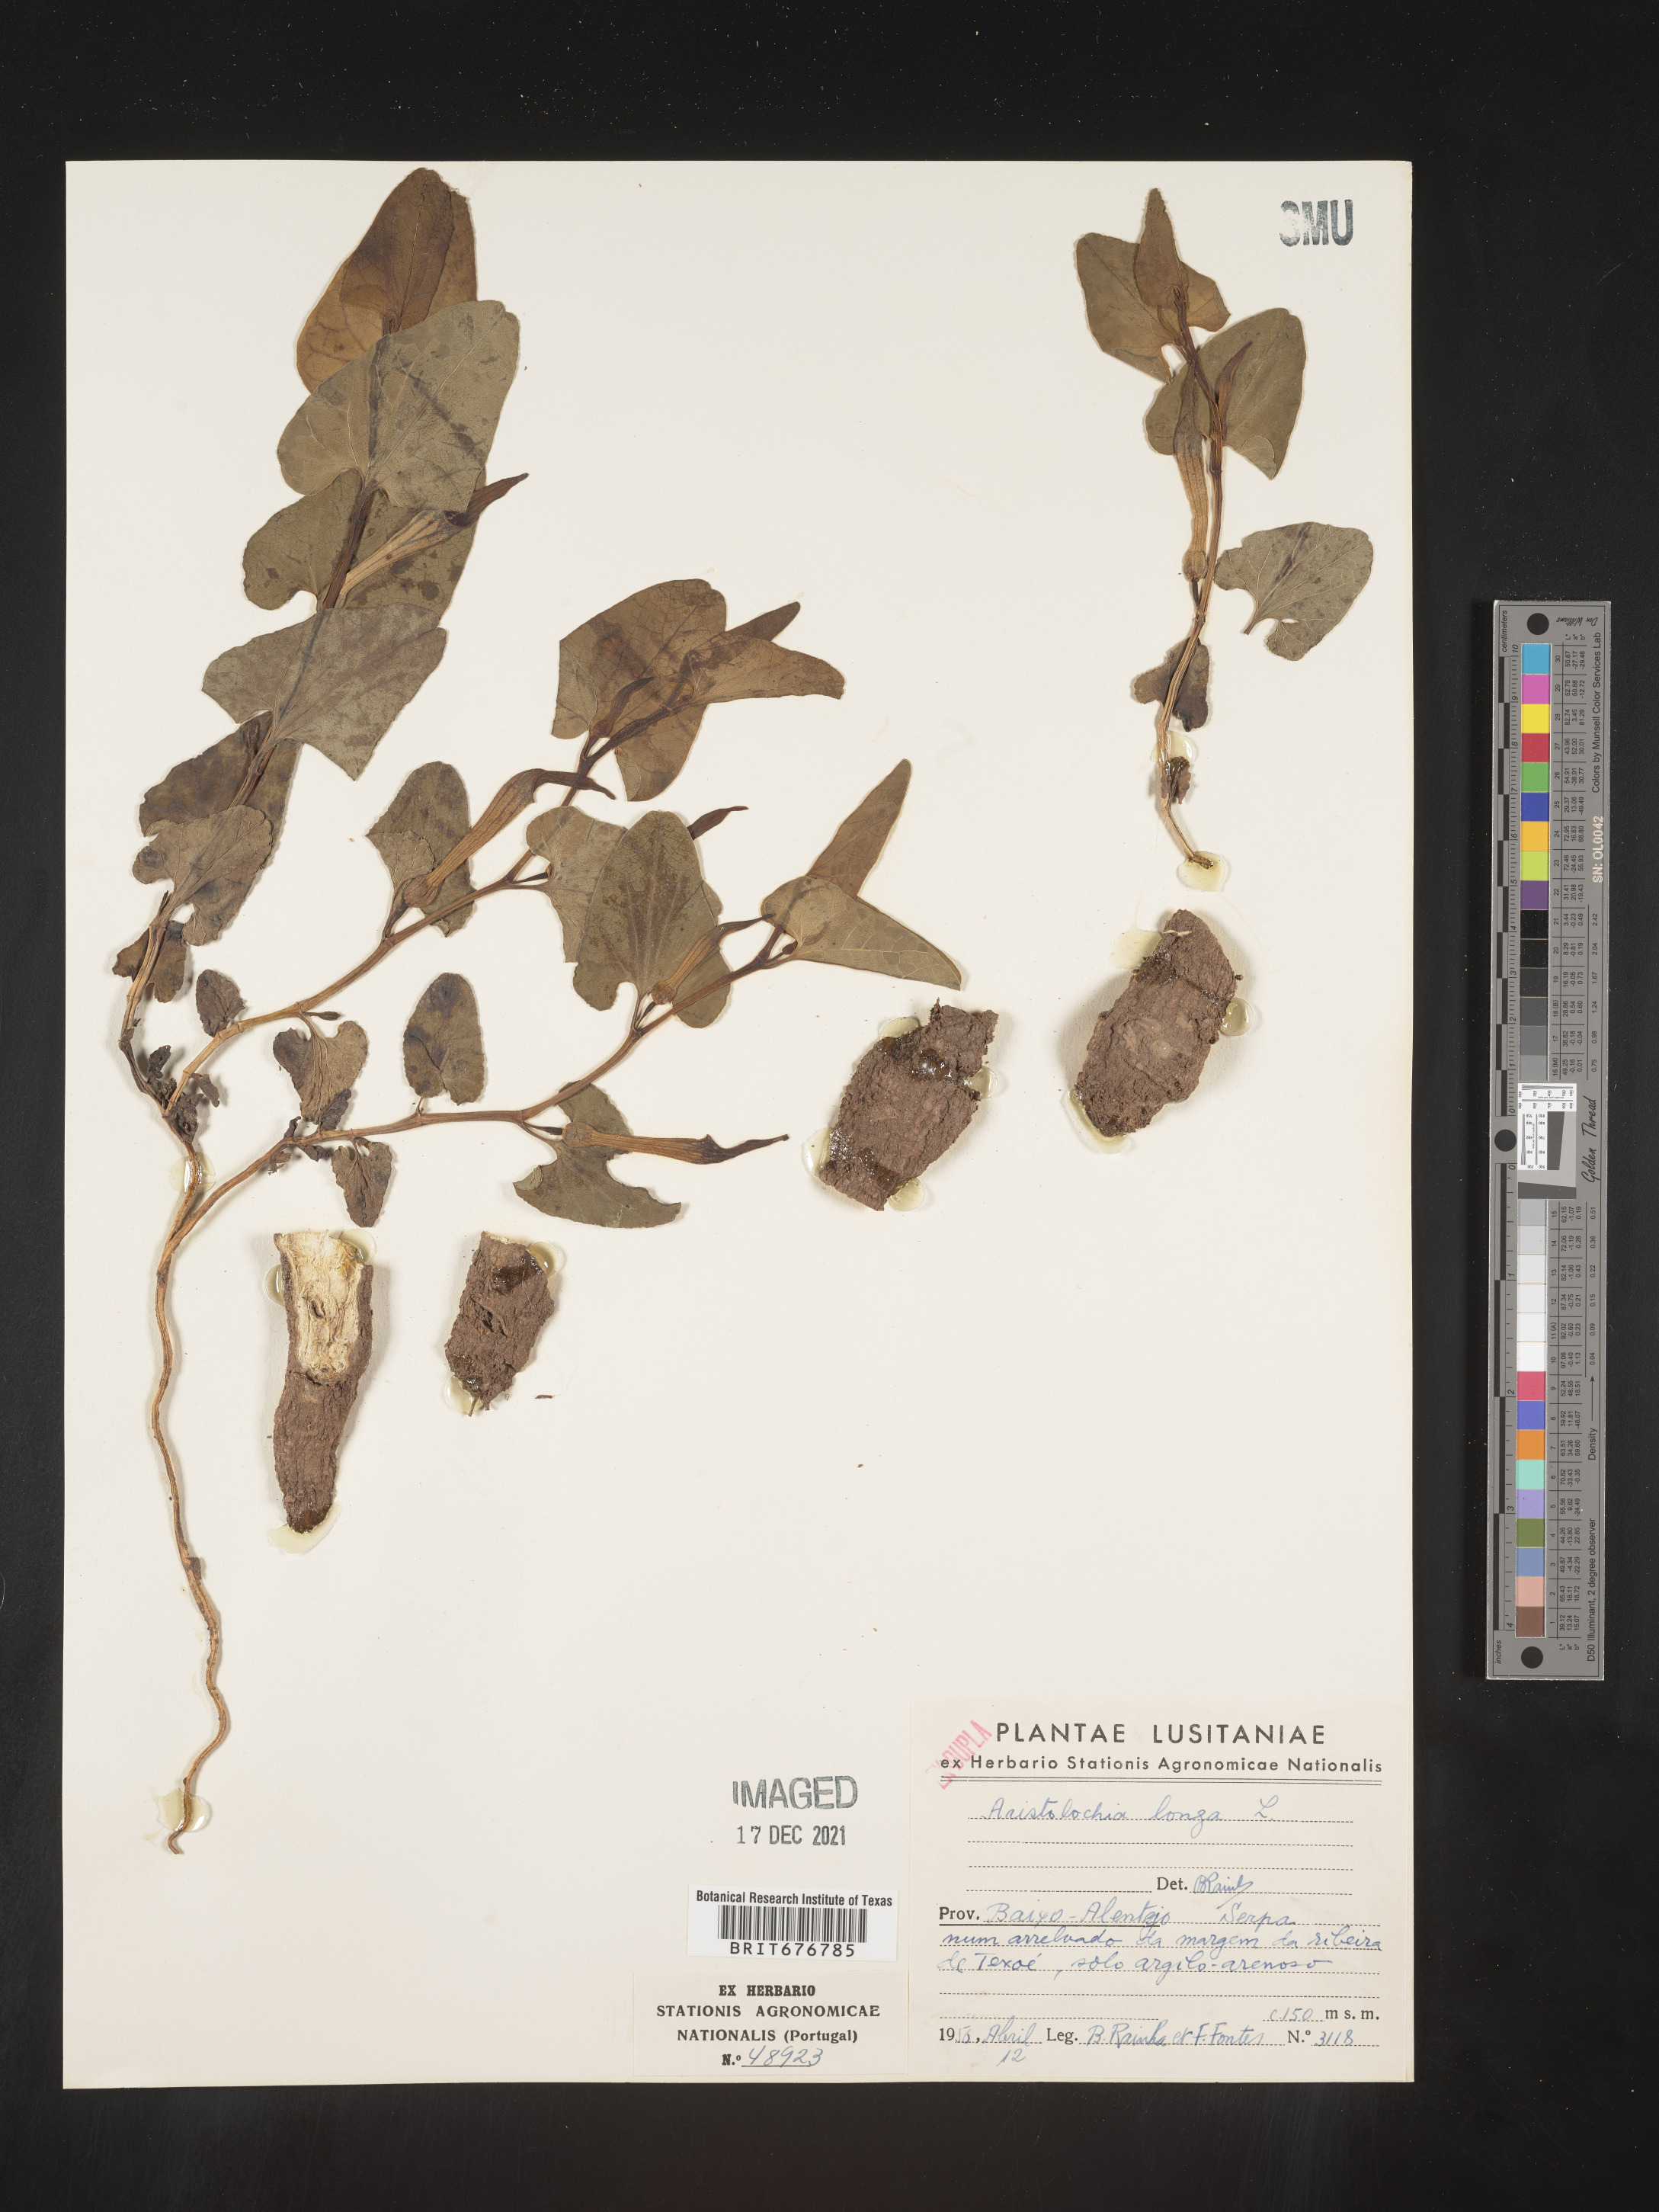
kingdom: Plantae
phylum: Tracheophyta
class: Magnoliopsida
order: Piperales
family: Aristolochiaceae
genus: Aristolochia
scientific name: Aristolochia
